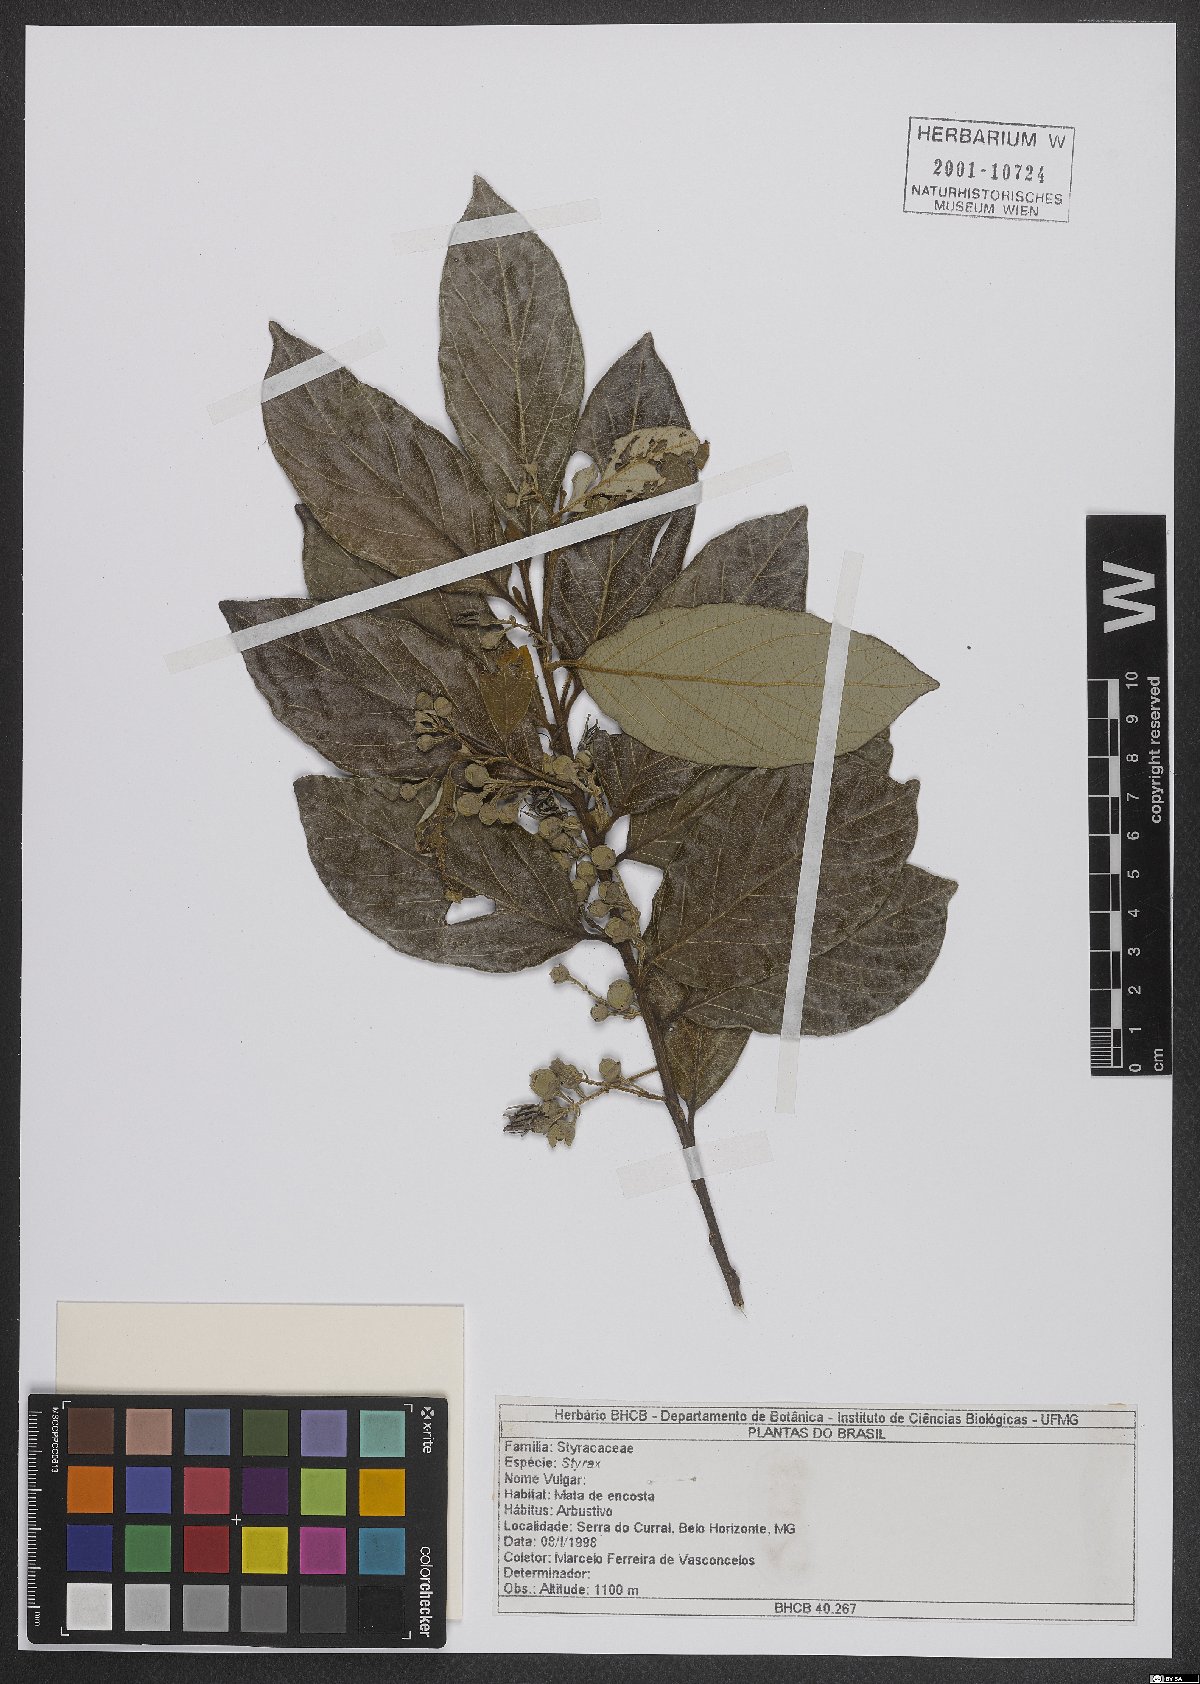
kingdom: Plantae
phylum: Tracheophyta
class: Magnoliopsida
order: Ericales
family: Styracaceae
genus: Styrax
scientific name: Styrax
